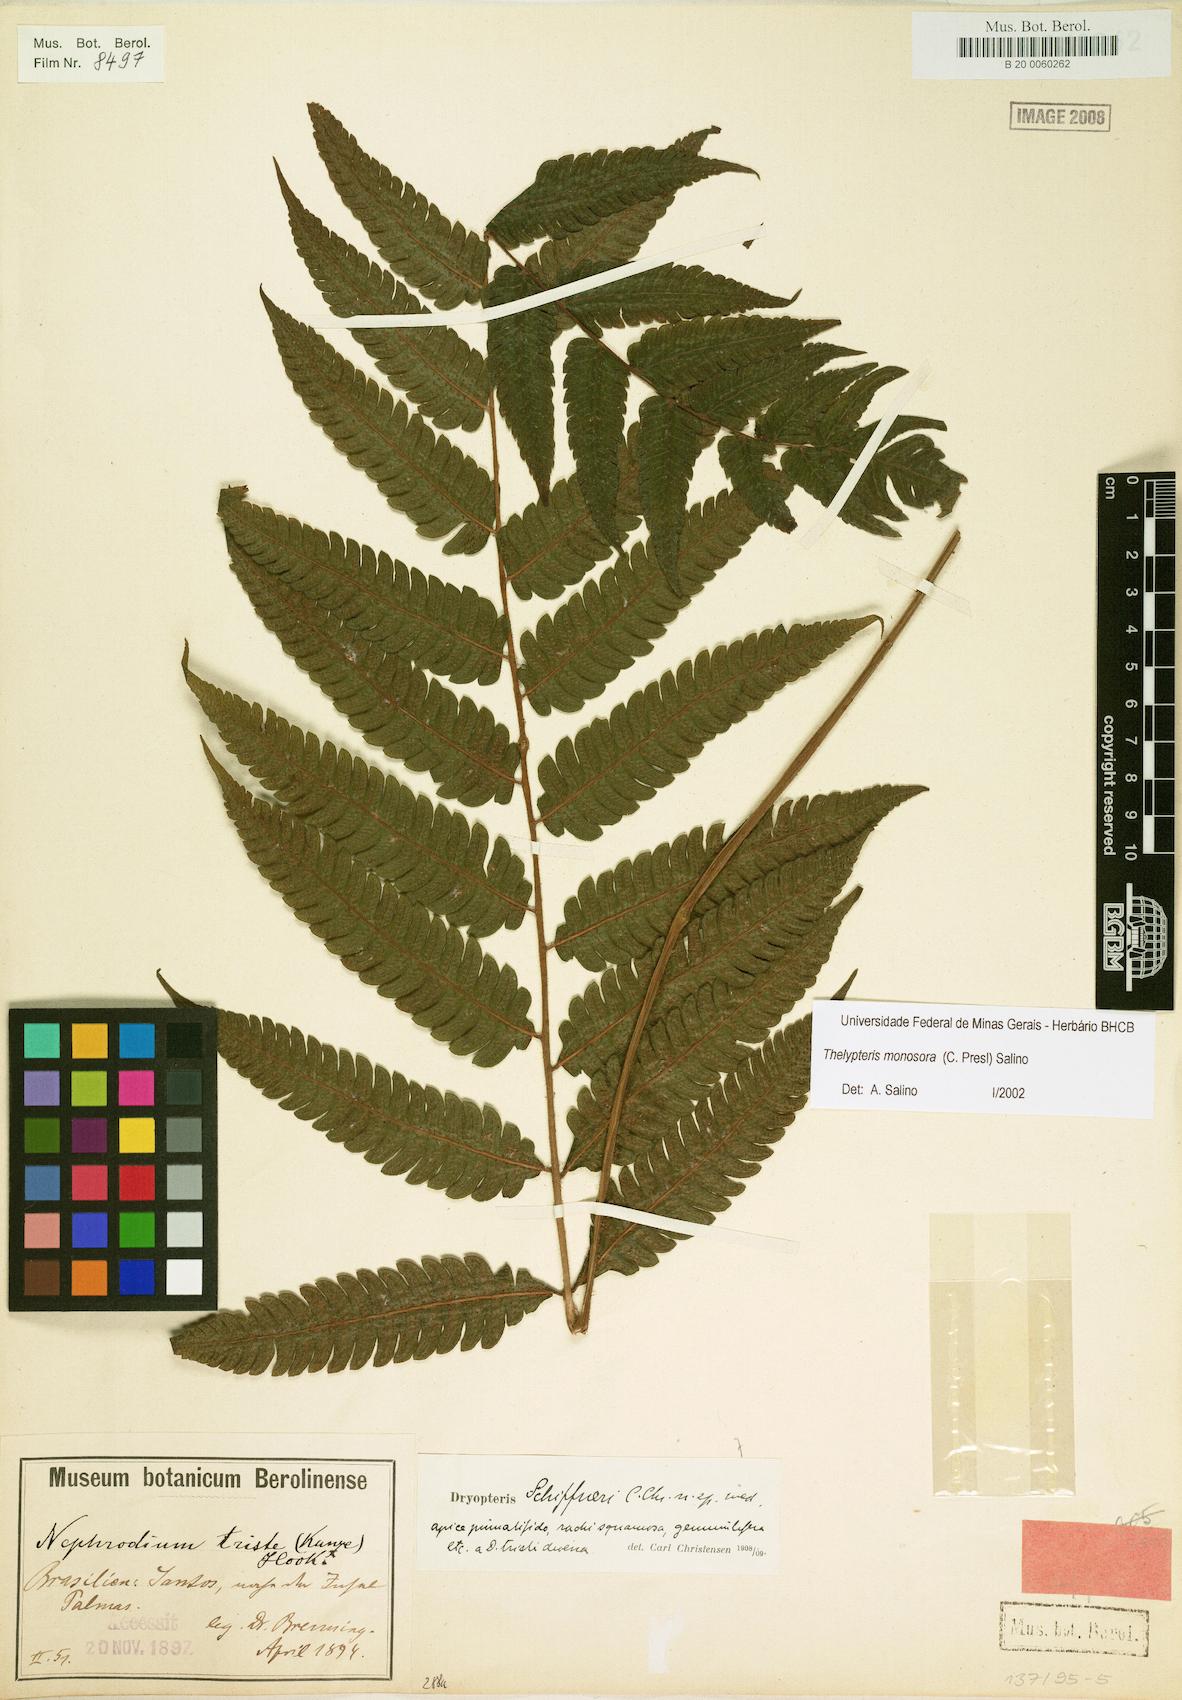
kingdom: Plantae
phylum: Tracheophyta
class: Polypodiopsida
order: Polypodiales
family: Thelypteridaceae
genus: Goniopteris
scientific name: Goniopteris monosora
